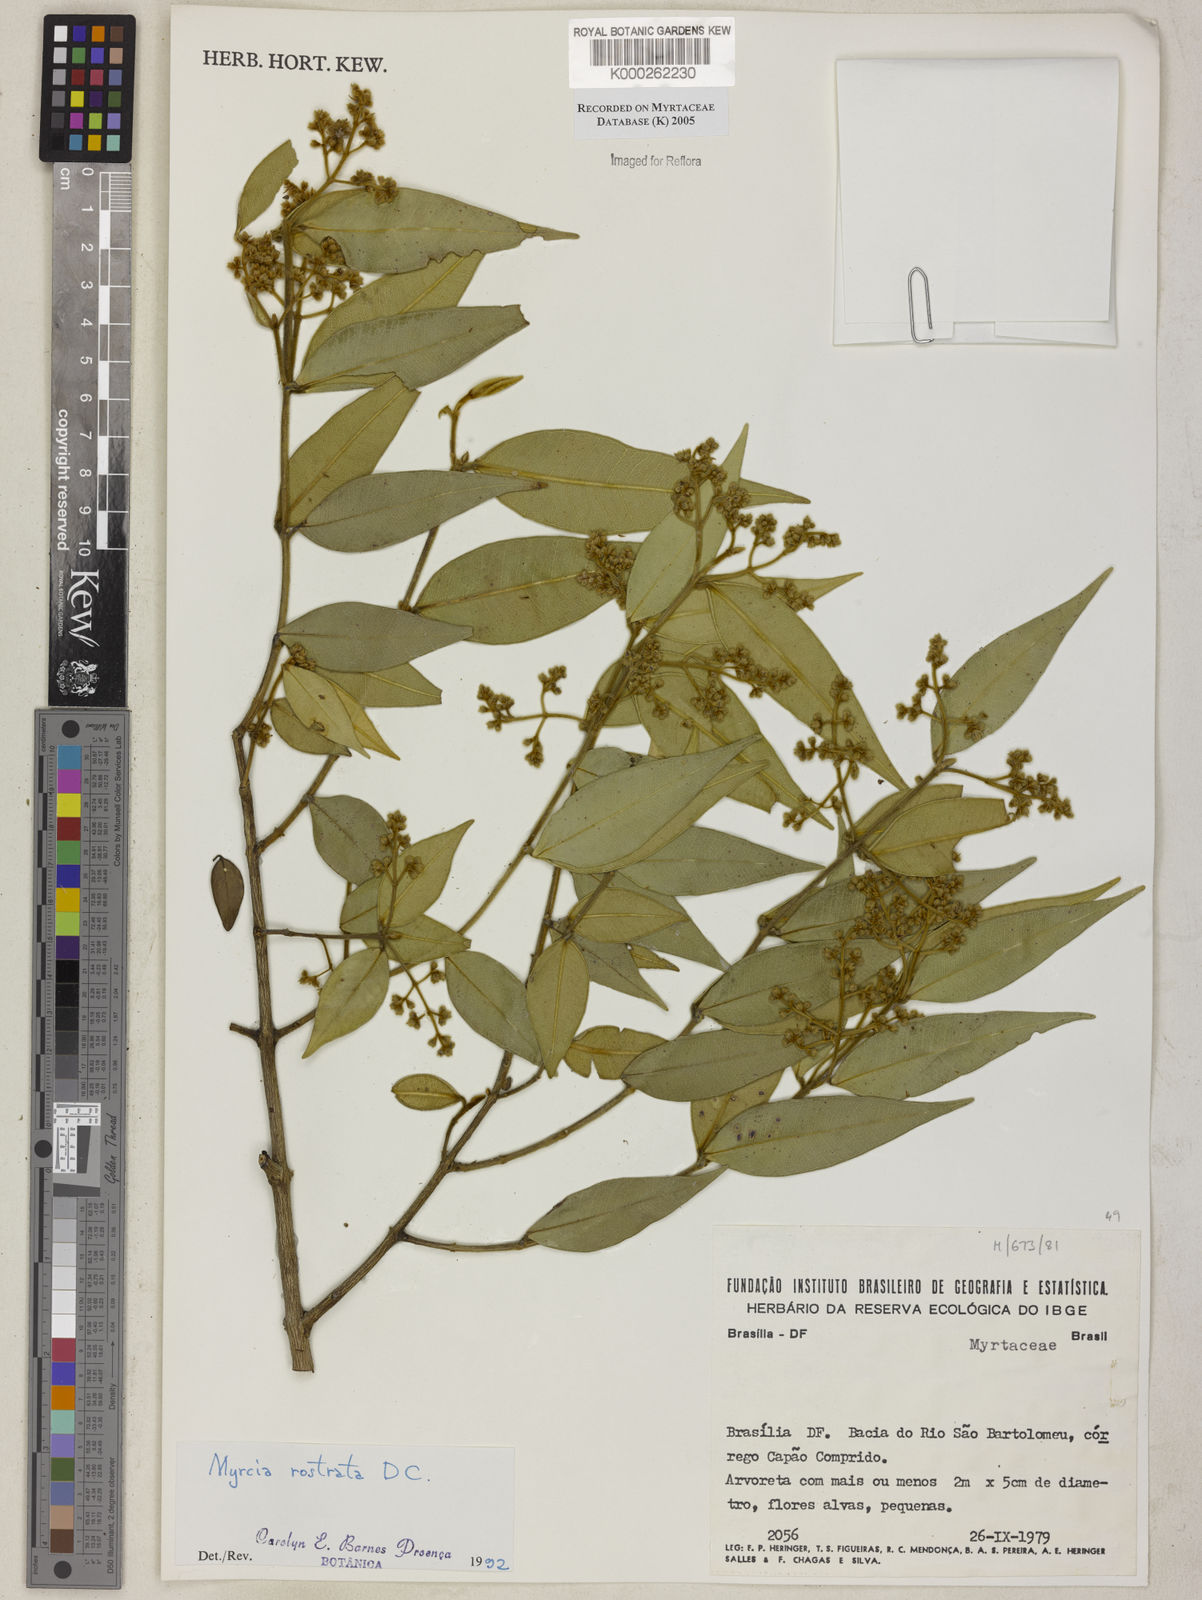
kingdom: Plantae
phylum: Tracheophyta
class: Magnoliopsida
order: Myrtales
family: Myrtaceae
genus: Myrcia
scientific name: Myrcia splendens
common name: Surinam cherry
